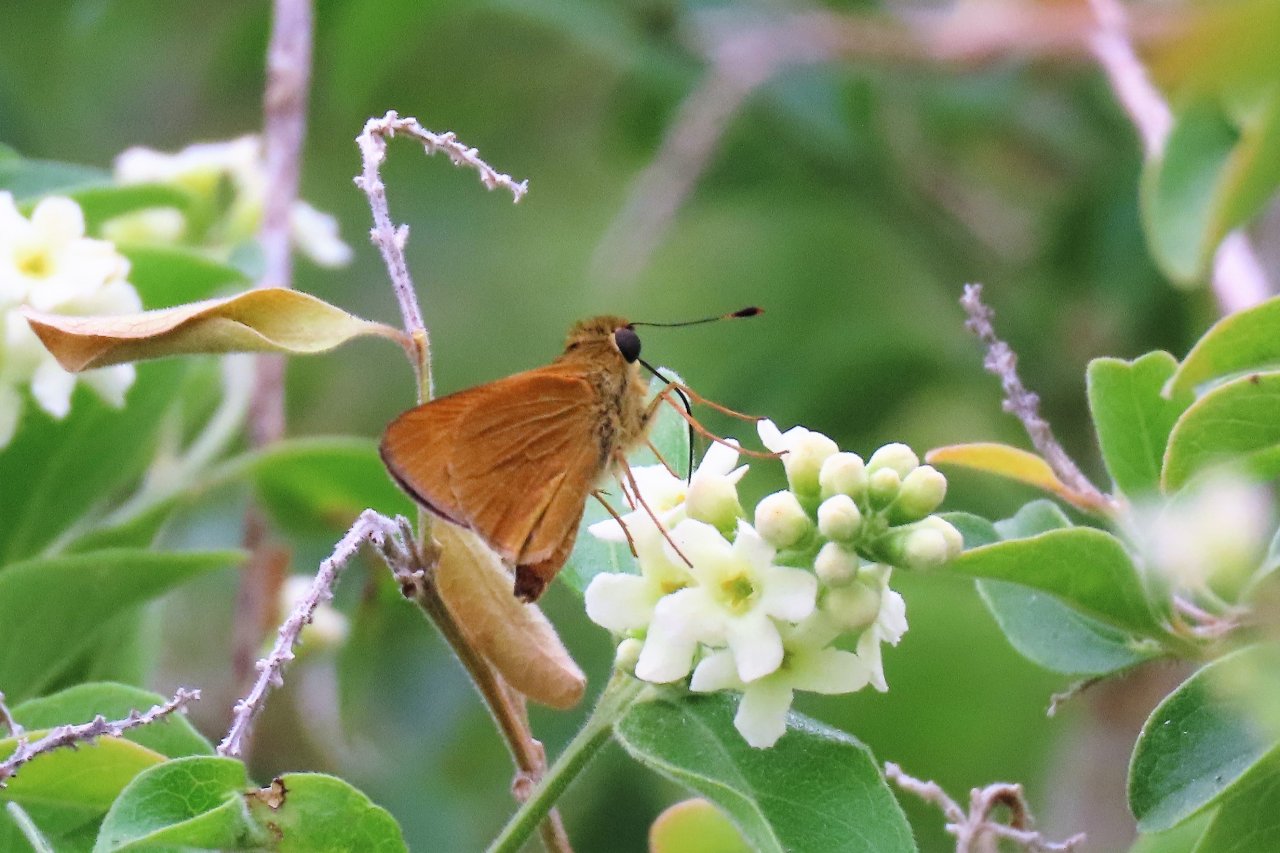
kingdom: Animalia
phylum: Arthropoda
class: Insecta
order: Lepidoptera
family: Hesperiidae
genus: Mellana
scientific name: Mellana eulogius
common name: Common Mellana
